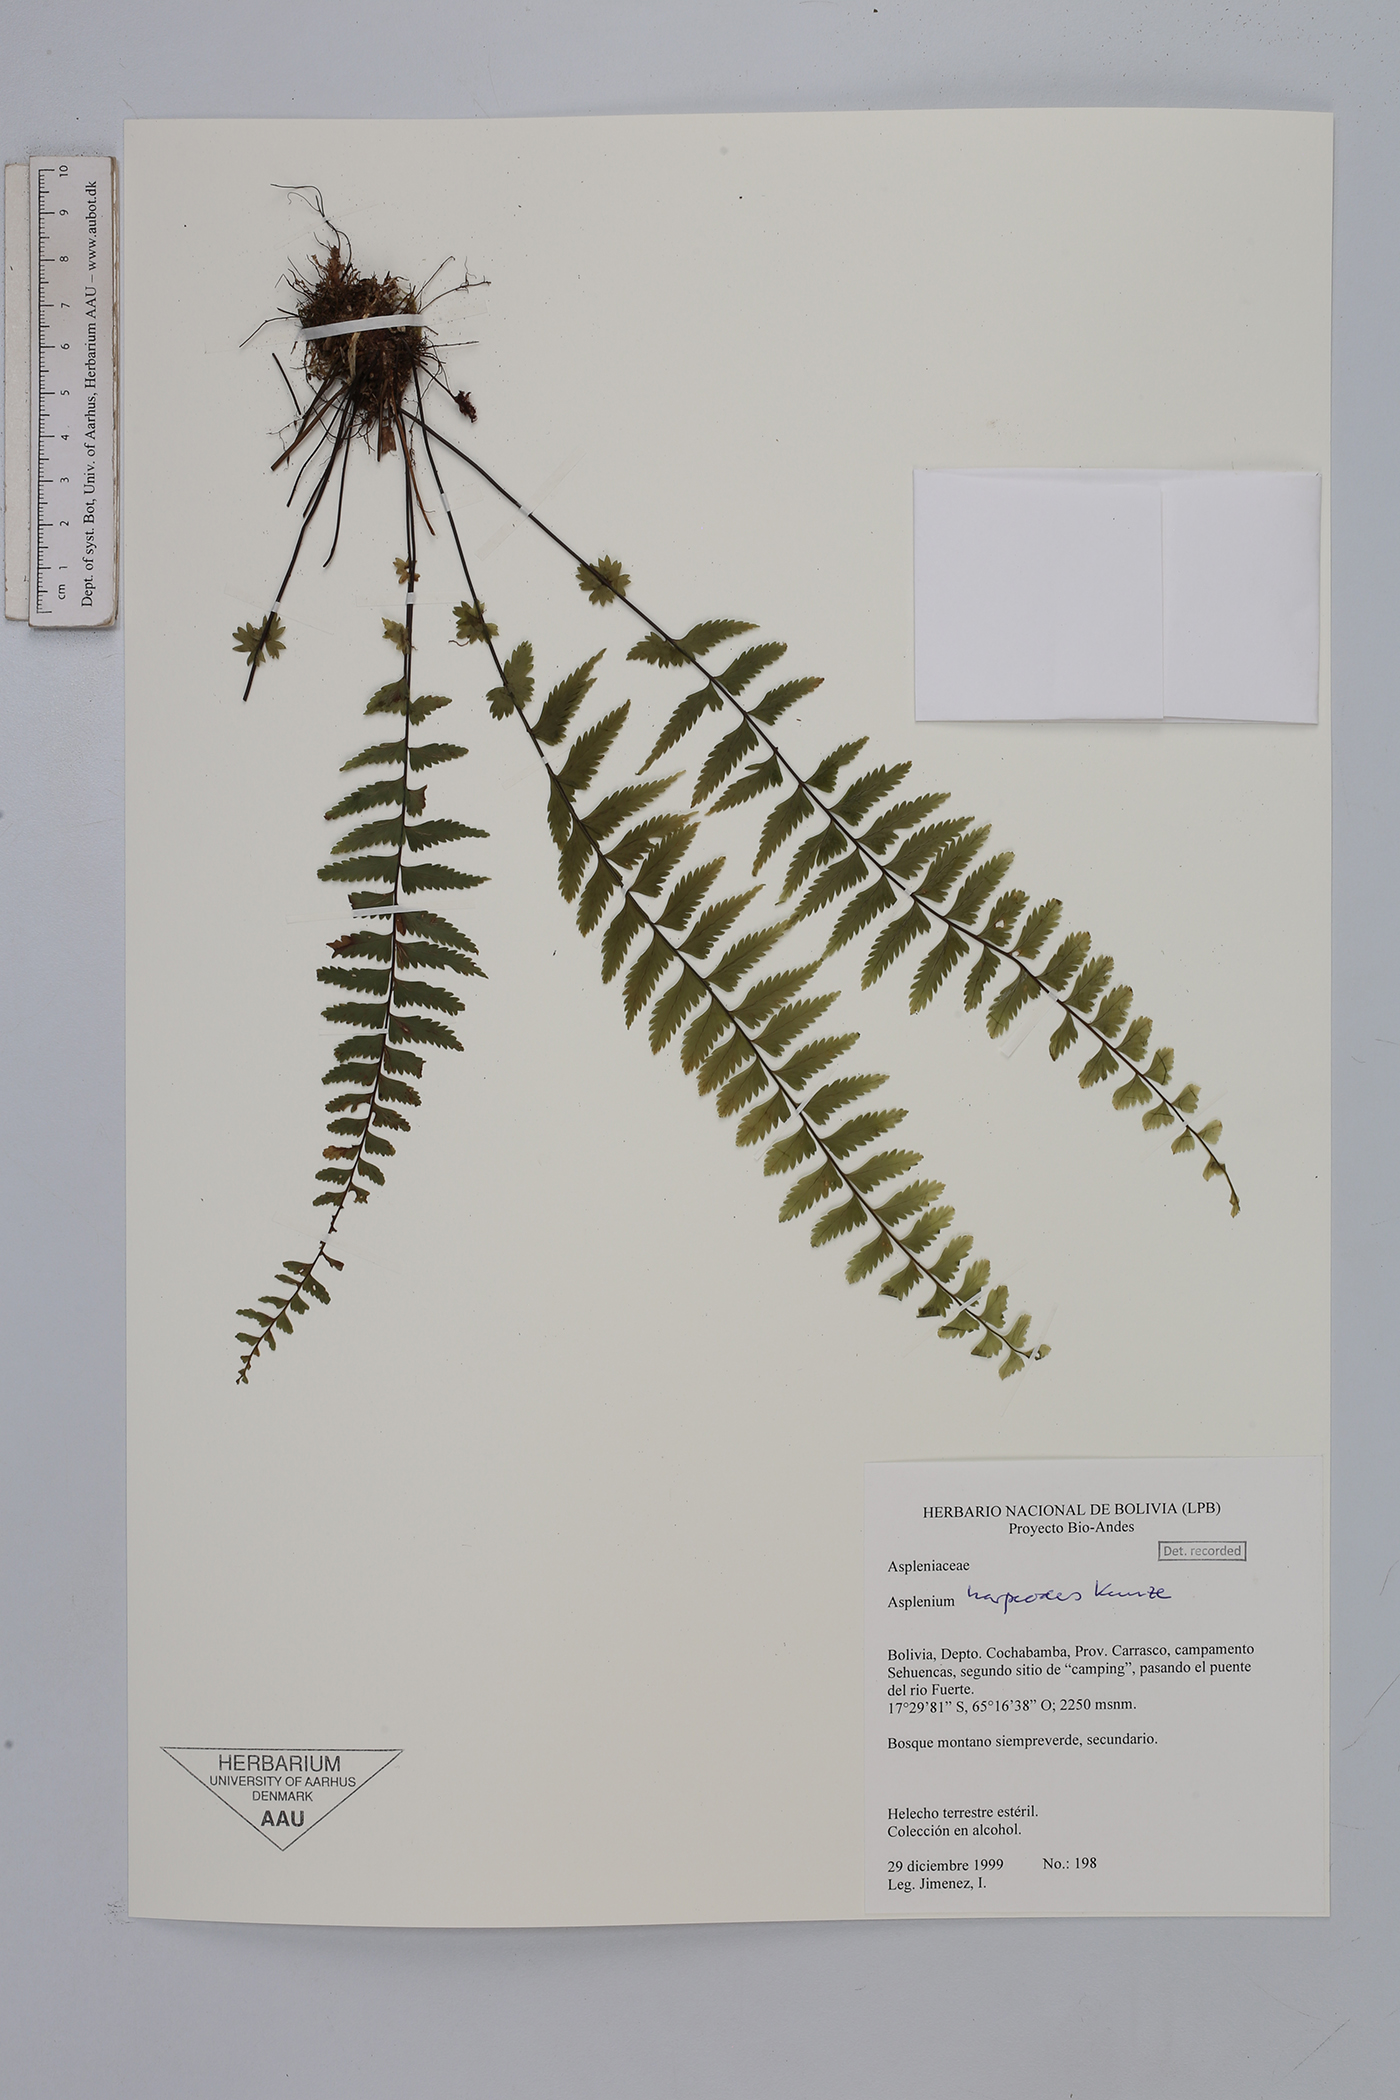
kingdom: Plantae
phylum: Tracheophyta
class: Polypodiopsida
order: Polypodiales
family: Aspleniaceae
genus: Asplenium
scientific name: Asplenium harpeodes
